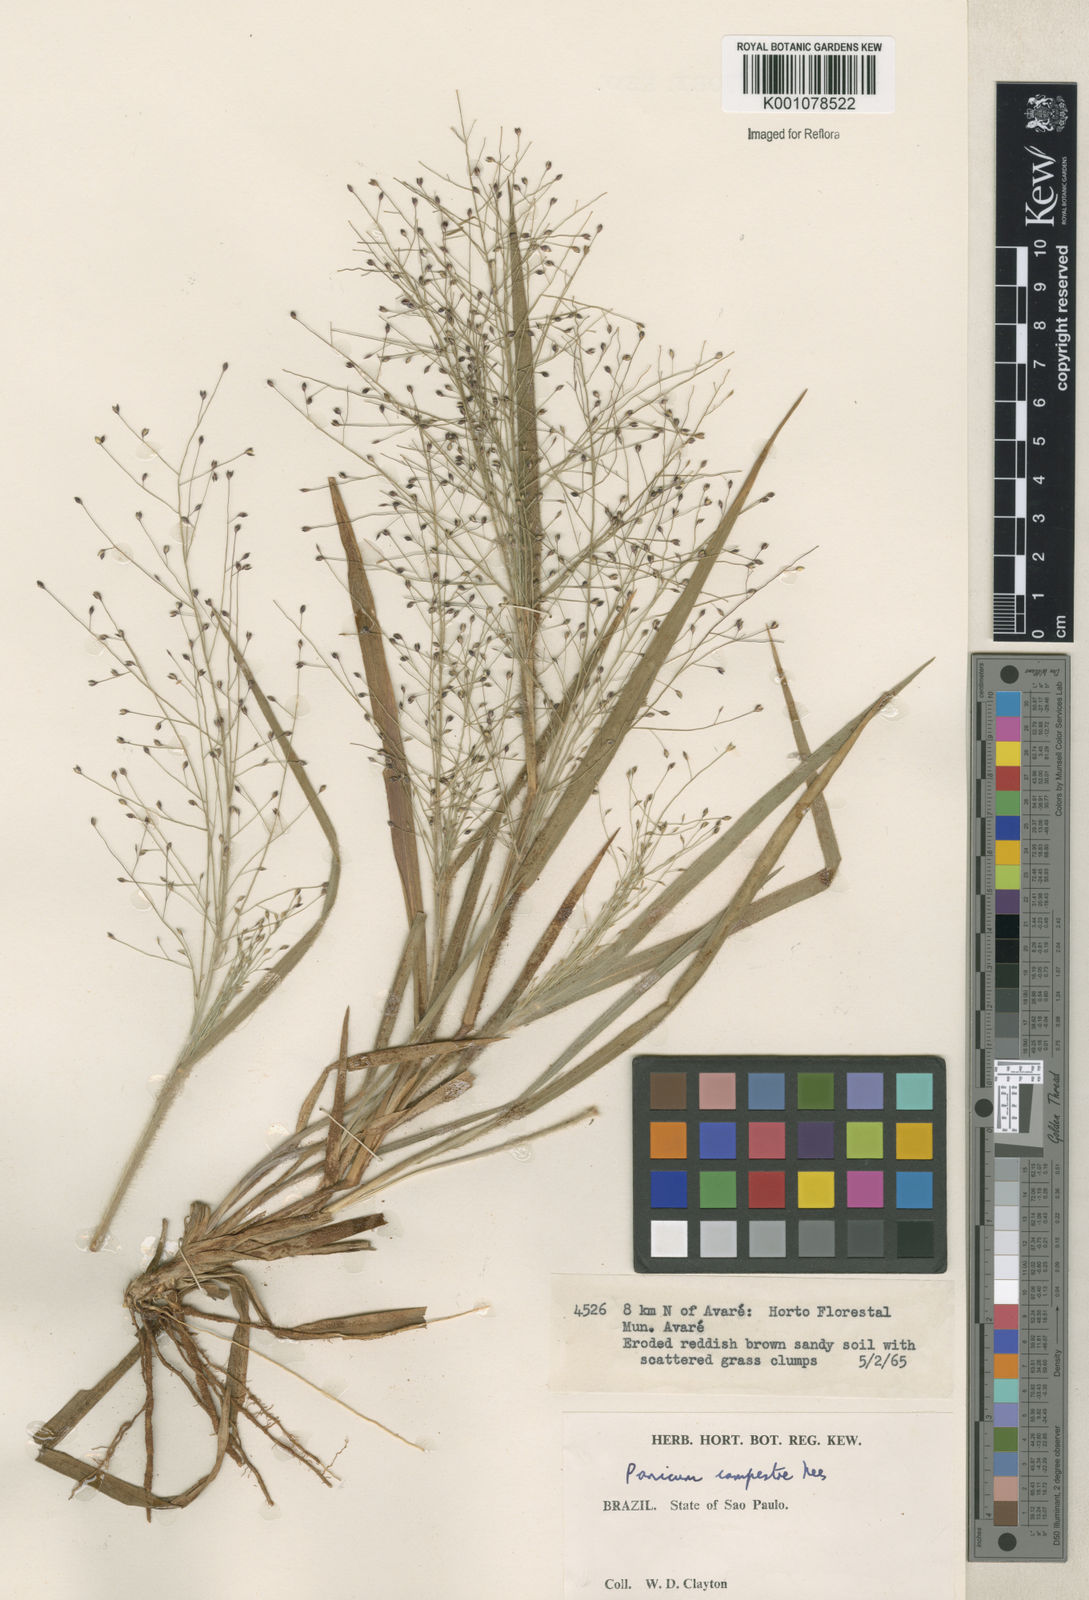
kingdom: Plantae
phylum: Tracheophyta
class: Liliopsida
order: Poales
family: Poaceae
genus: Panicum
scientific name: Panicum campestre
